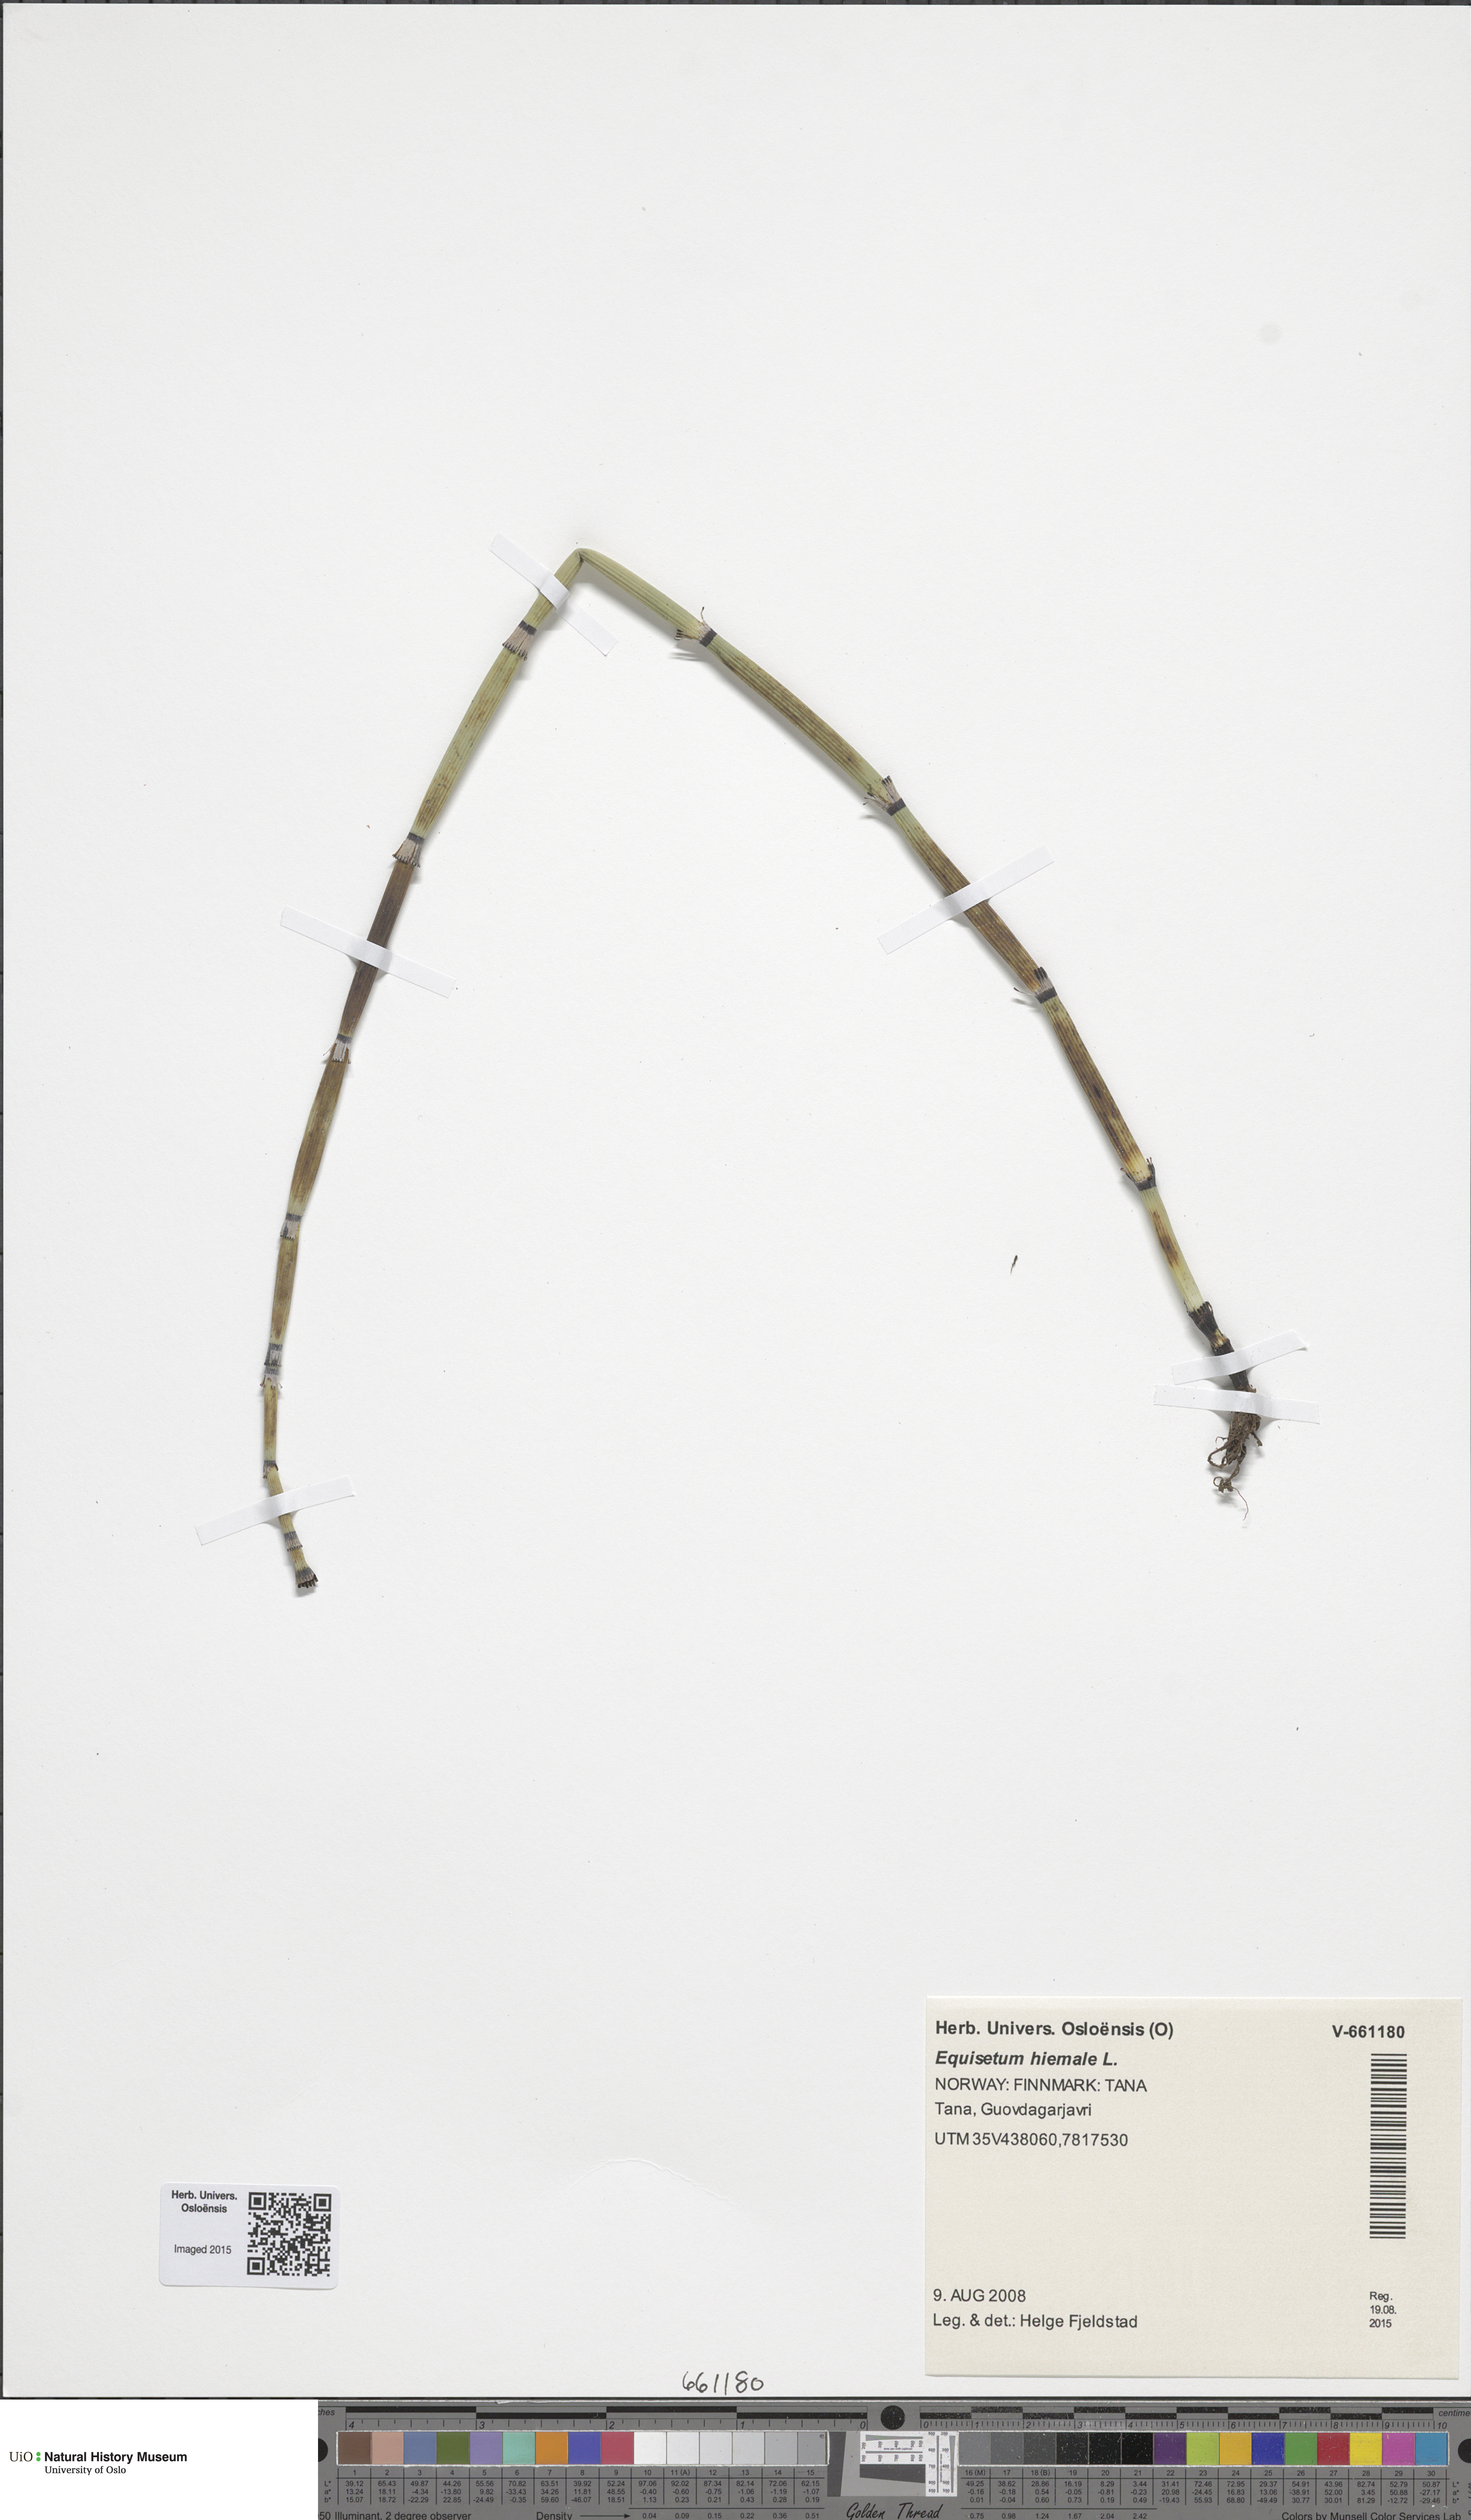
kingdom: Plantae
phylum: Tracheophyta
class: Polypodiopsida
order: Equisetales
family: Equisetaceae
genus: Equisetum
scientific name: Equisetum hyemale
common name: Rough horsetail
